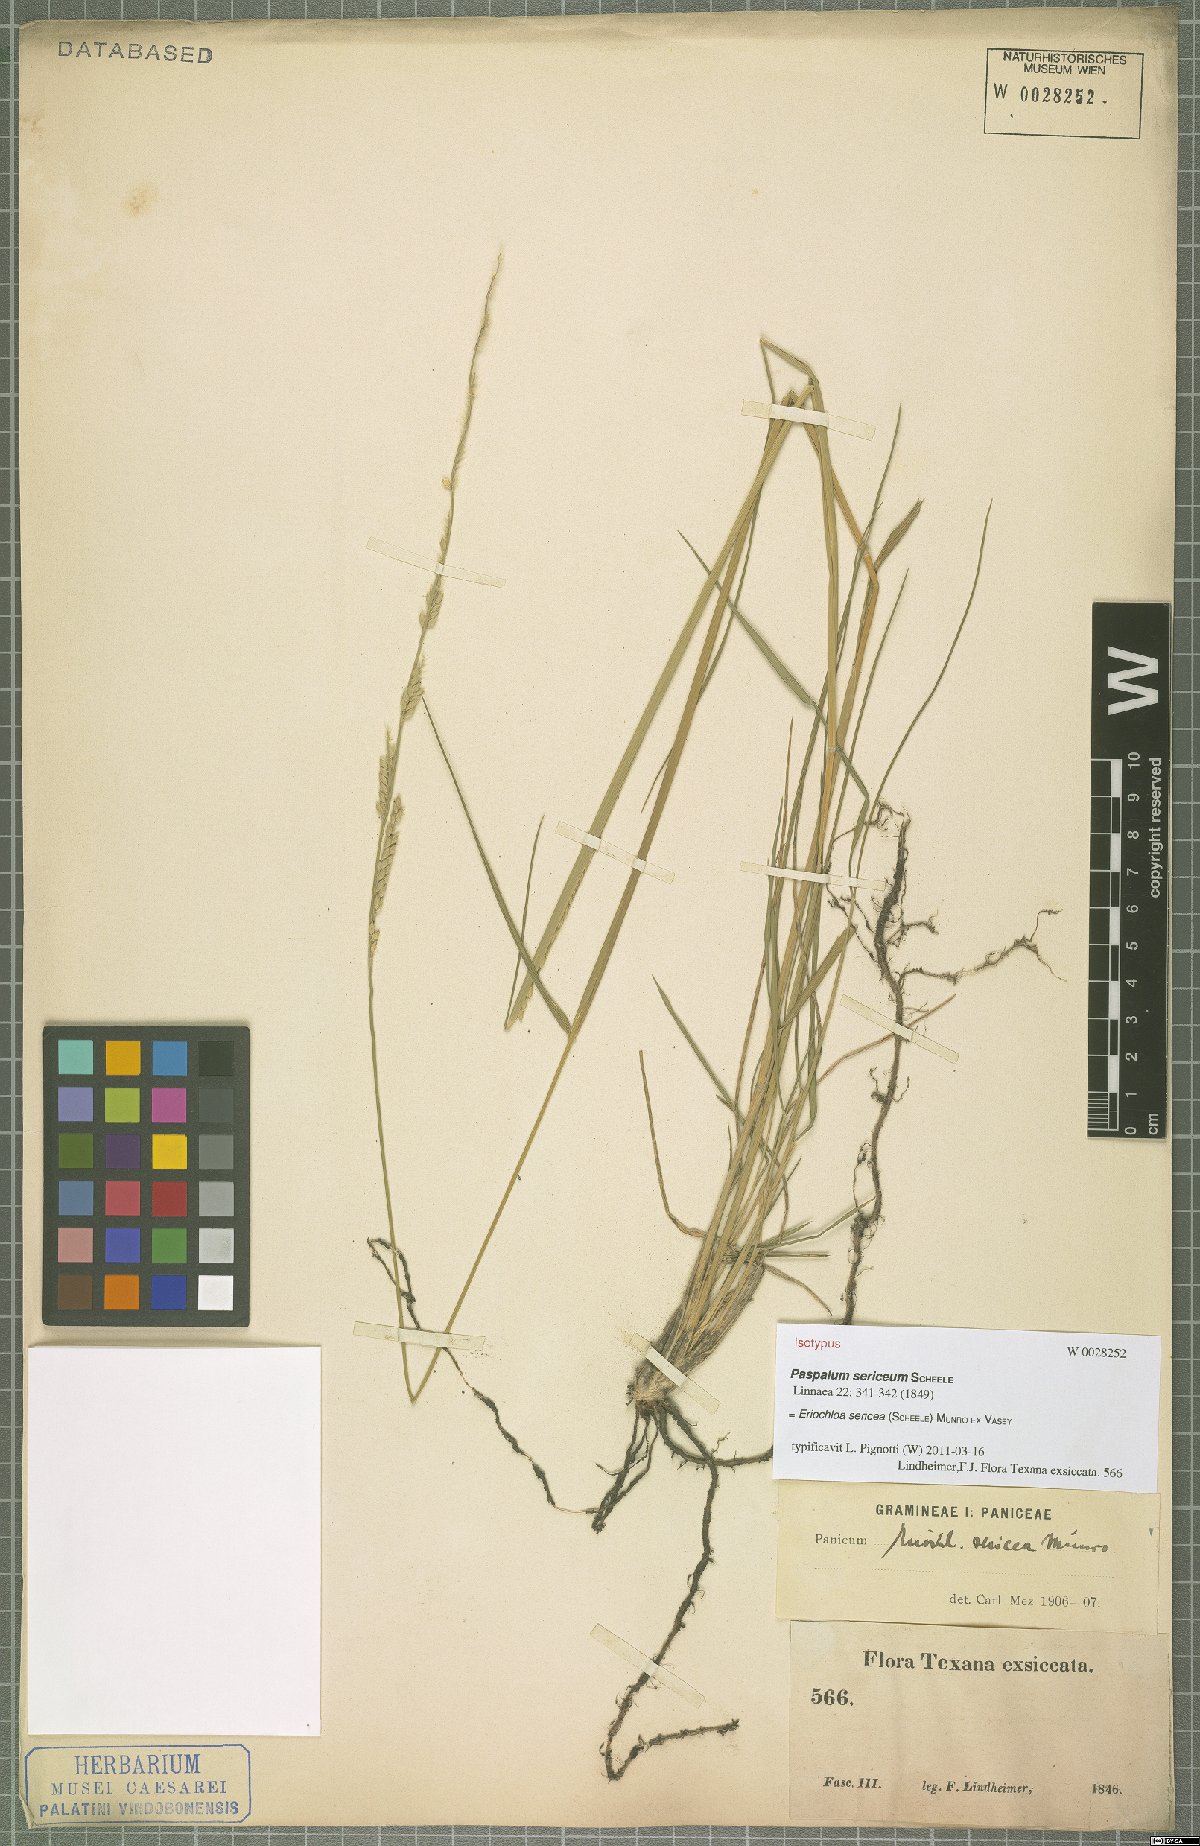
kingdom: Plantae
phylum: Tracheophyta
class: Liliopsida
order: Poales
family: Poaceae
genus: Eriochloa
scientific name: Eriochloa sericea
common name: Texas cup grass
